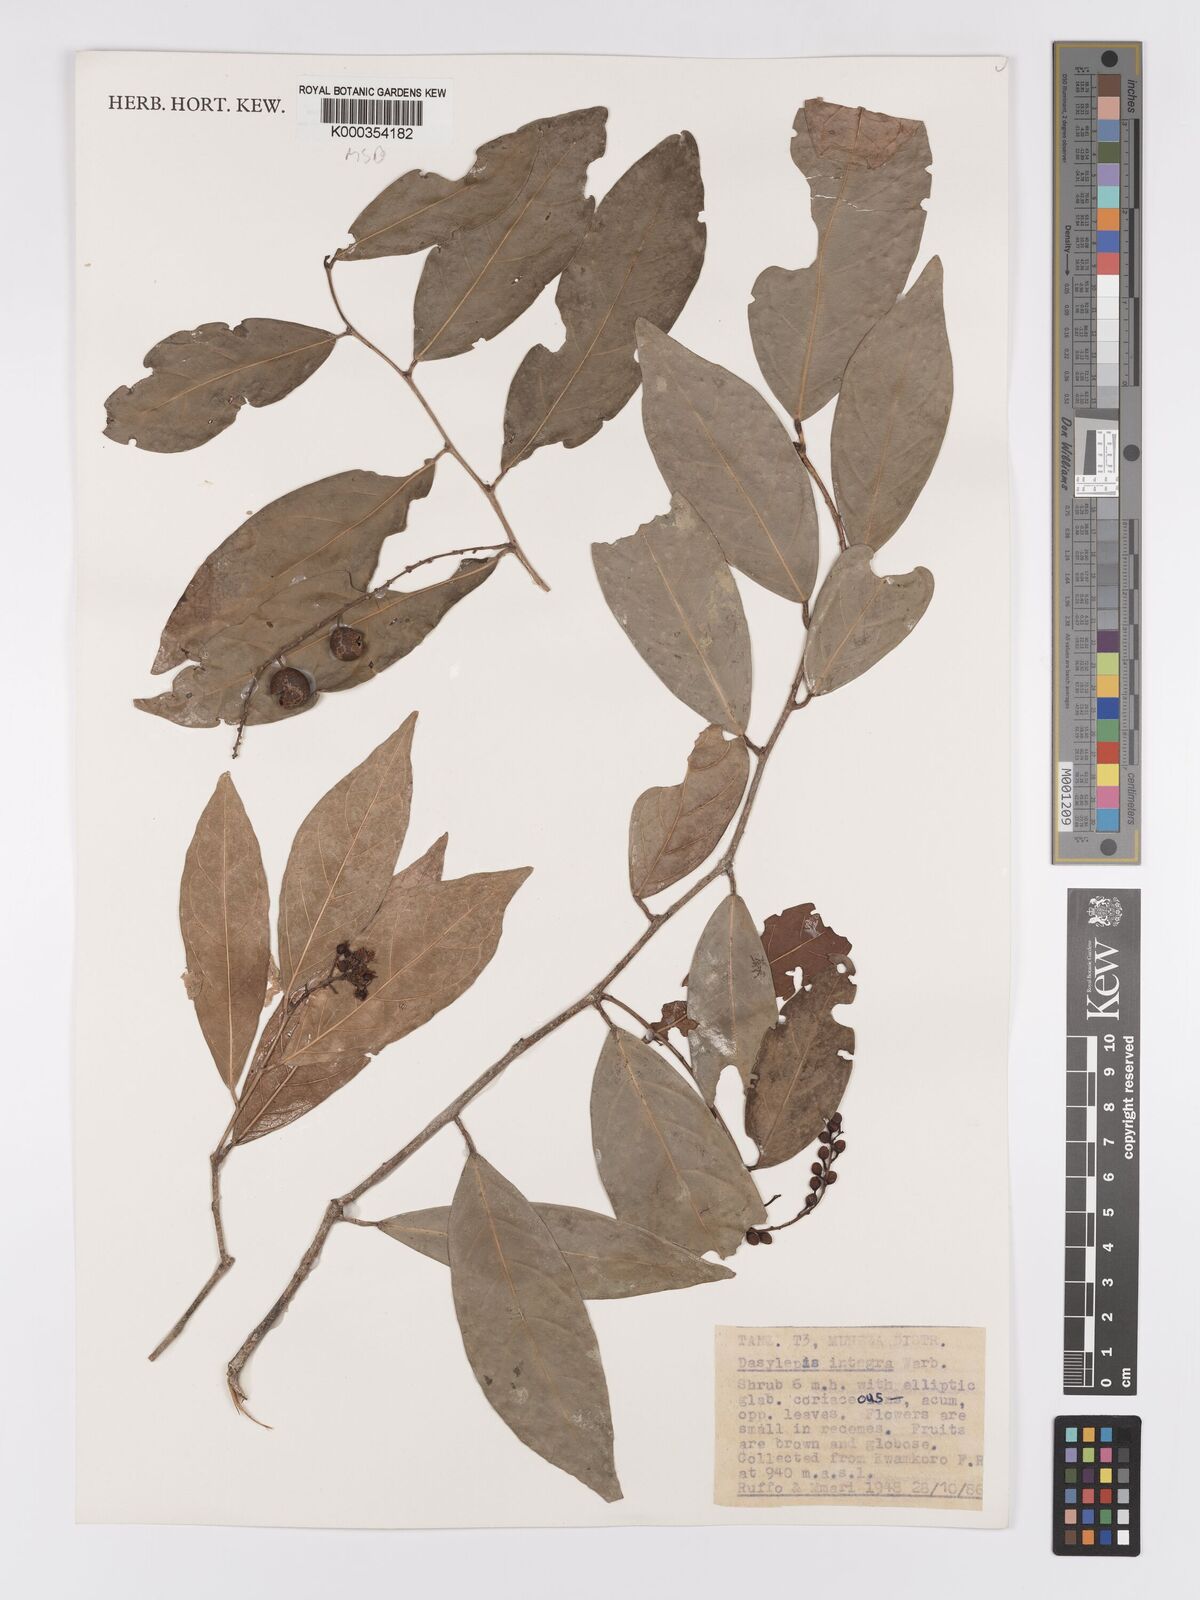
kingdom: Plantae
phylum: Tracheophyta
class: Magnoliopsida
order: Malpighiales
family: Achariaceae
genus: Dasylepis
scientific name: Dasylepis integra
